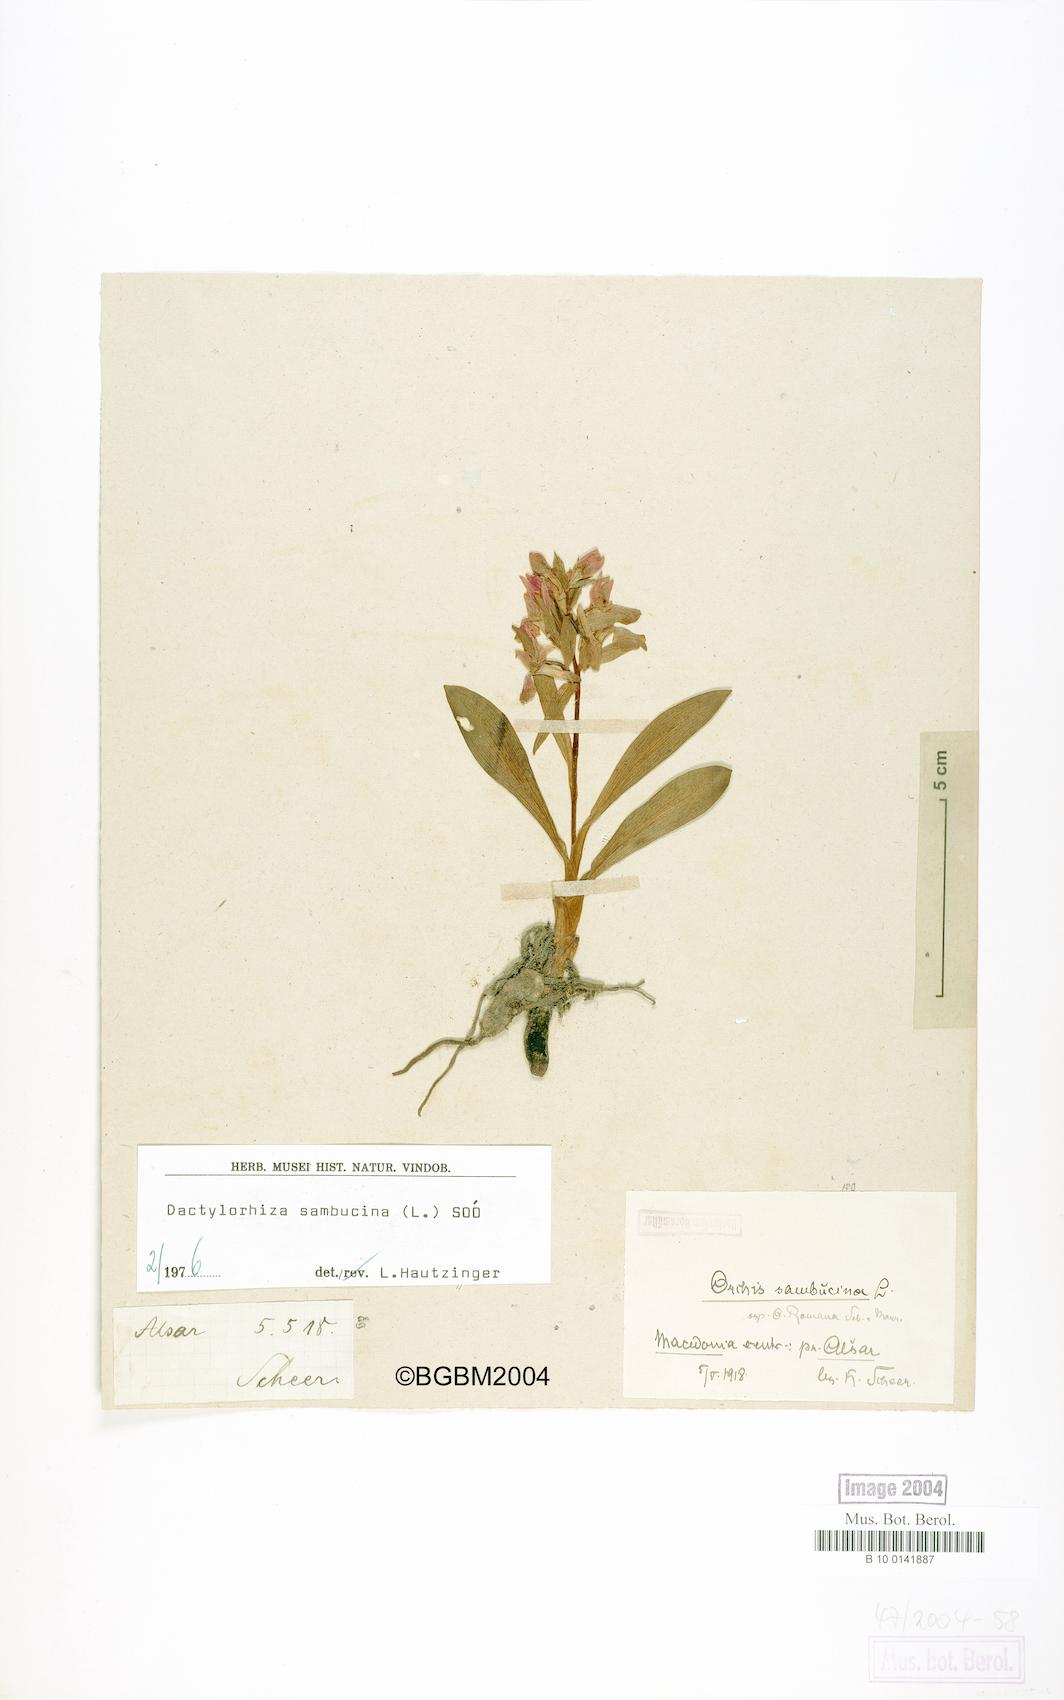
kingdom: Plantae
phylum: Tracheophyta
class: Liliopsida
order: Asparagales
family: Orchidaceae
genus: Dactylorhiza
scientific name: Dactylorhiza sambucina
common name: Elder-flowered orchid
